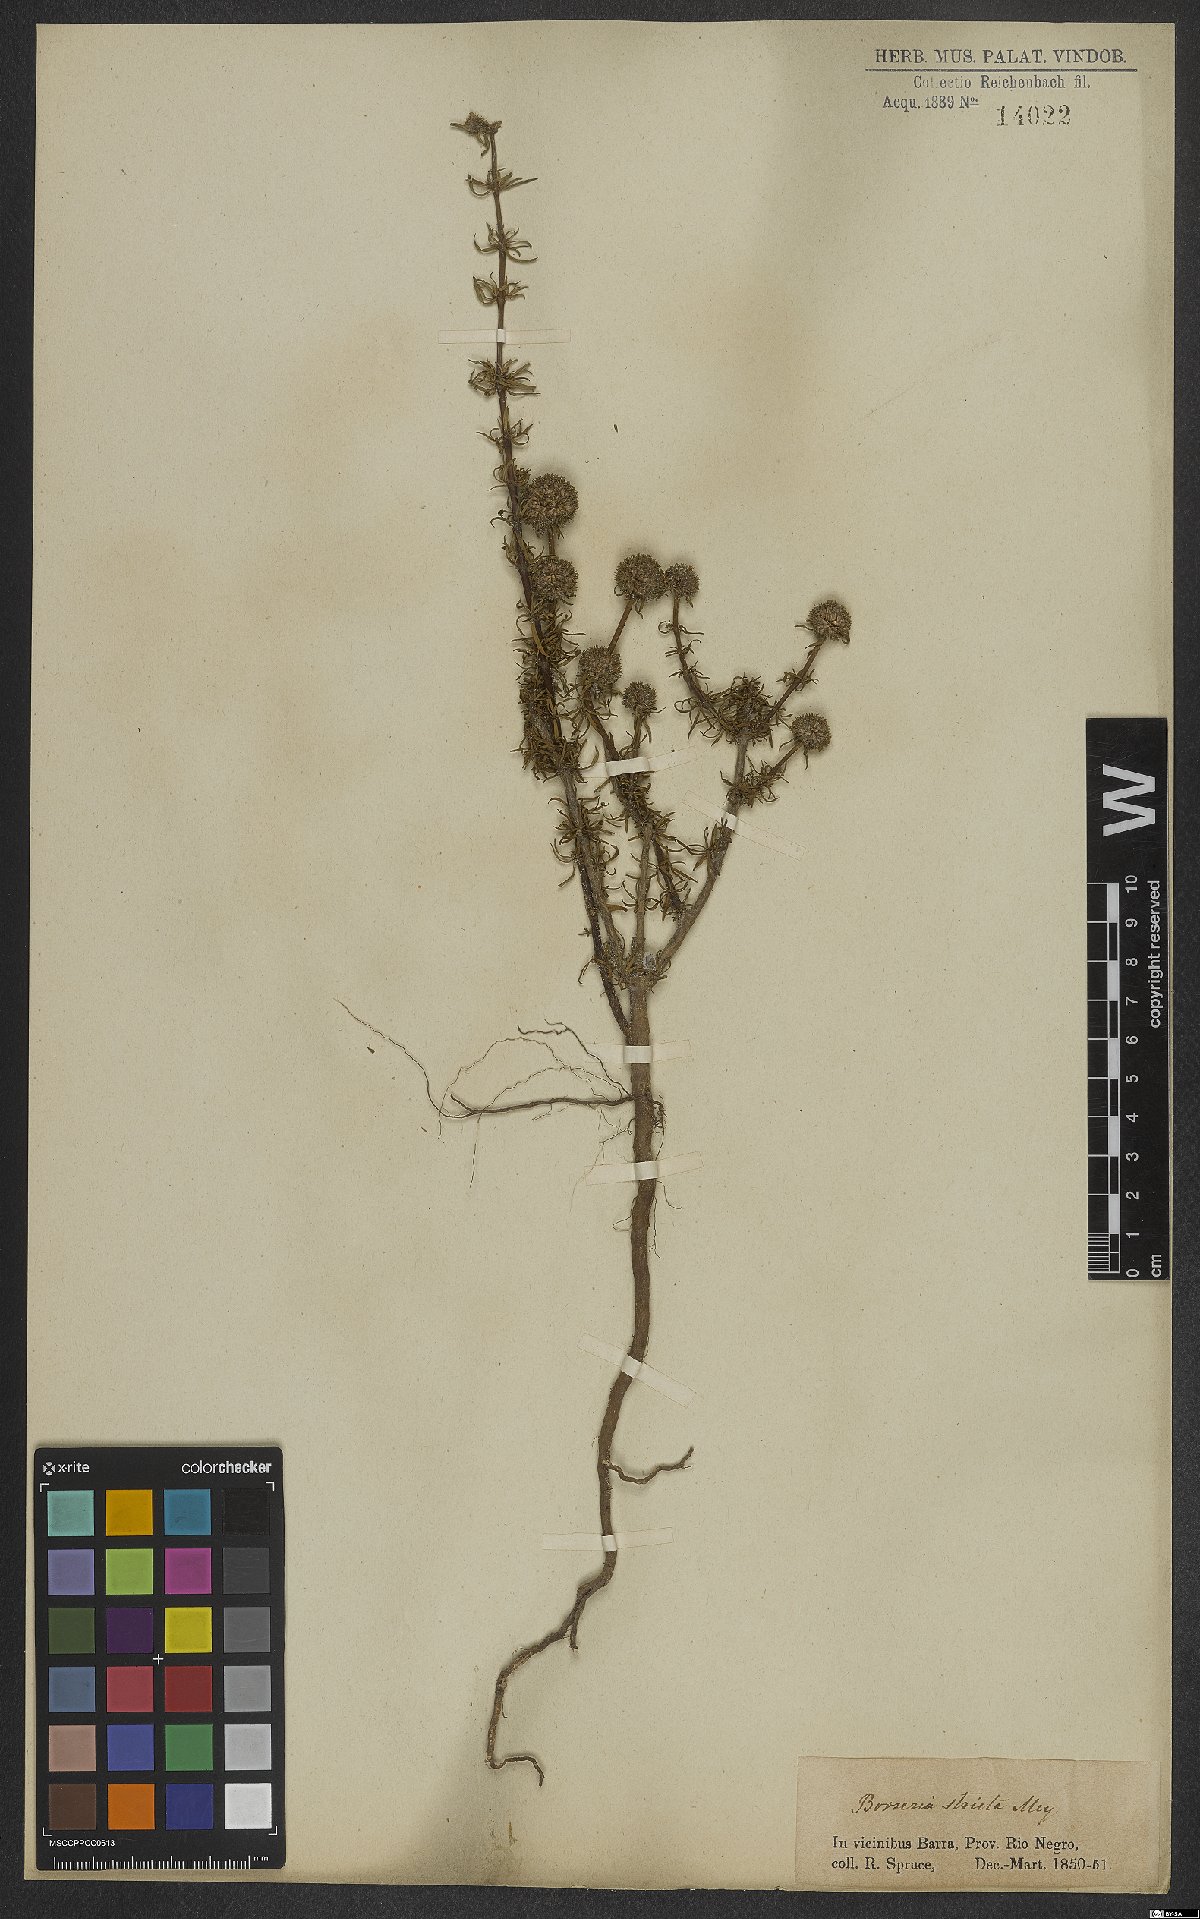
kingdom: Plantae
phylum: Tracheophyta
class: Magnoliopsida
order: Gentianales
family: Rubiaceae
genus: Spermacoce
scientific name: Spermacoce ocymoides
